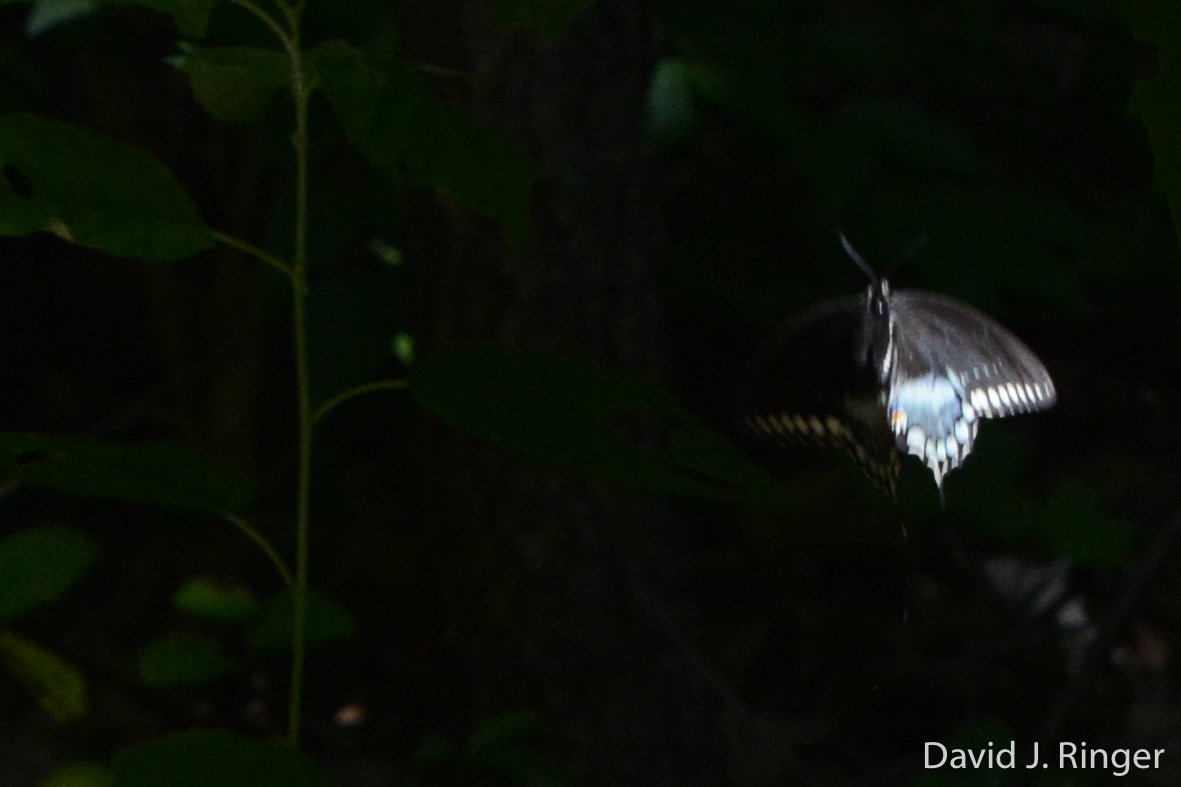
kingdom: Animalia
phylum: Arthropoda
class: Insecta
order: Lepidoptera
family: Papilionidae
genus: Pterourus
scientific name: Pterourus troilus
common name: Spicebush Swallowtail
